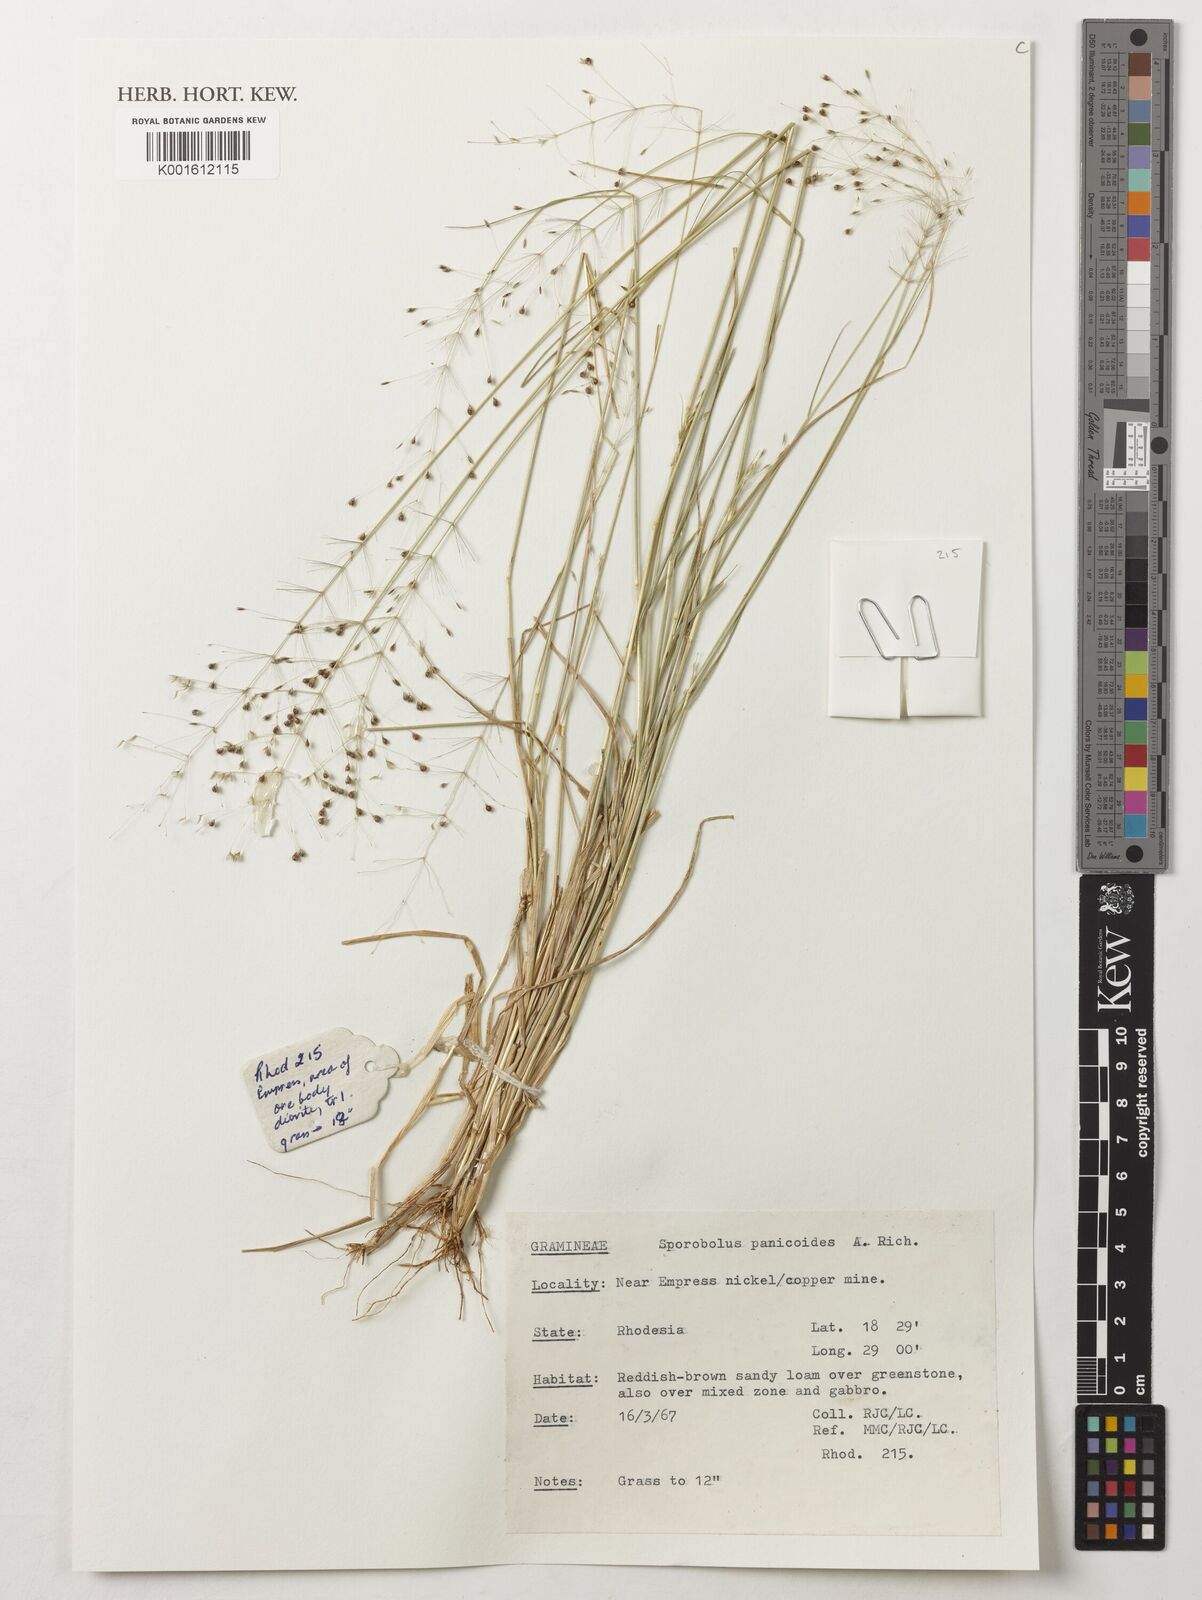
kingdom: Plantae
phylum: Tracheophyta
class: Liliopsida
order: Poales
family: Poaceae
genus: Sporobolus
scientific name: Sporobolus panicoides
